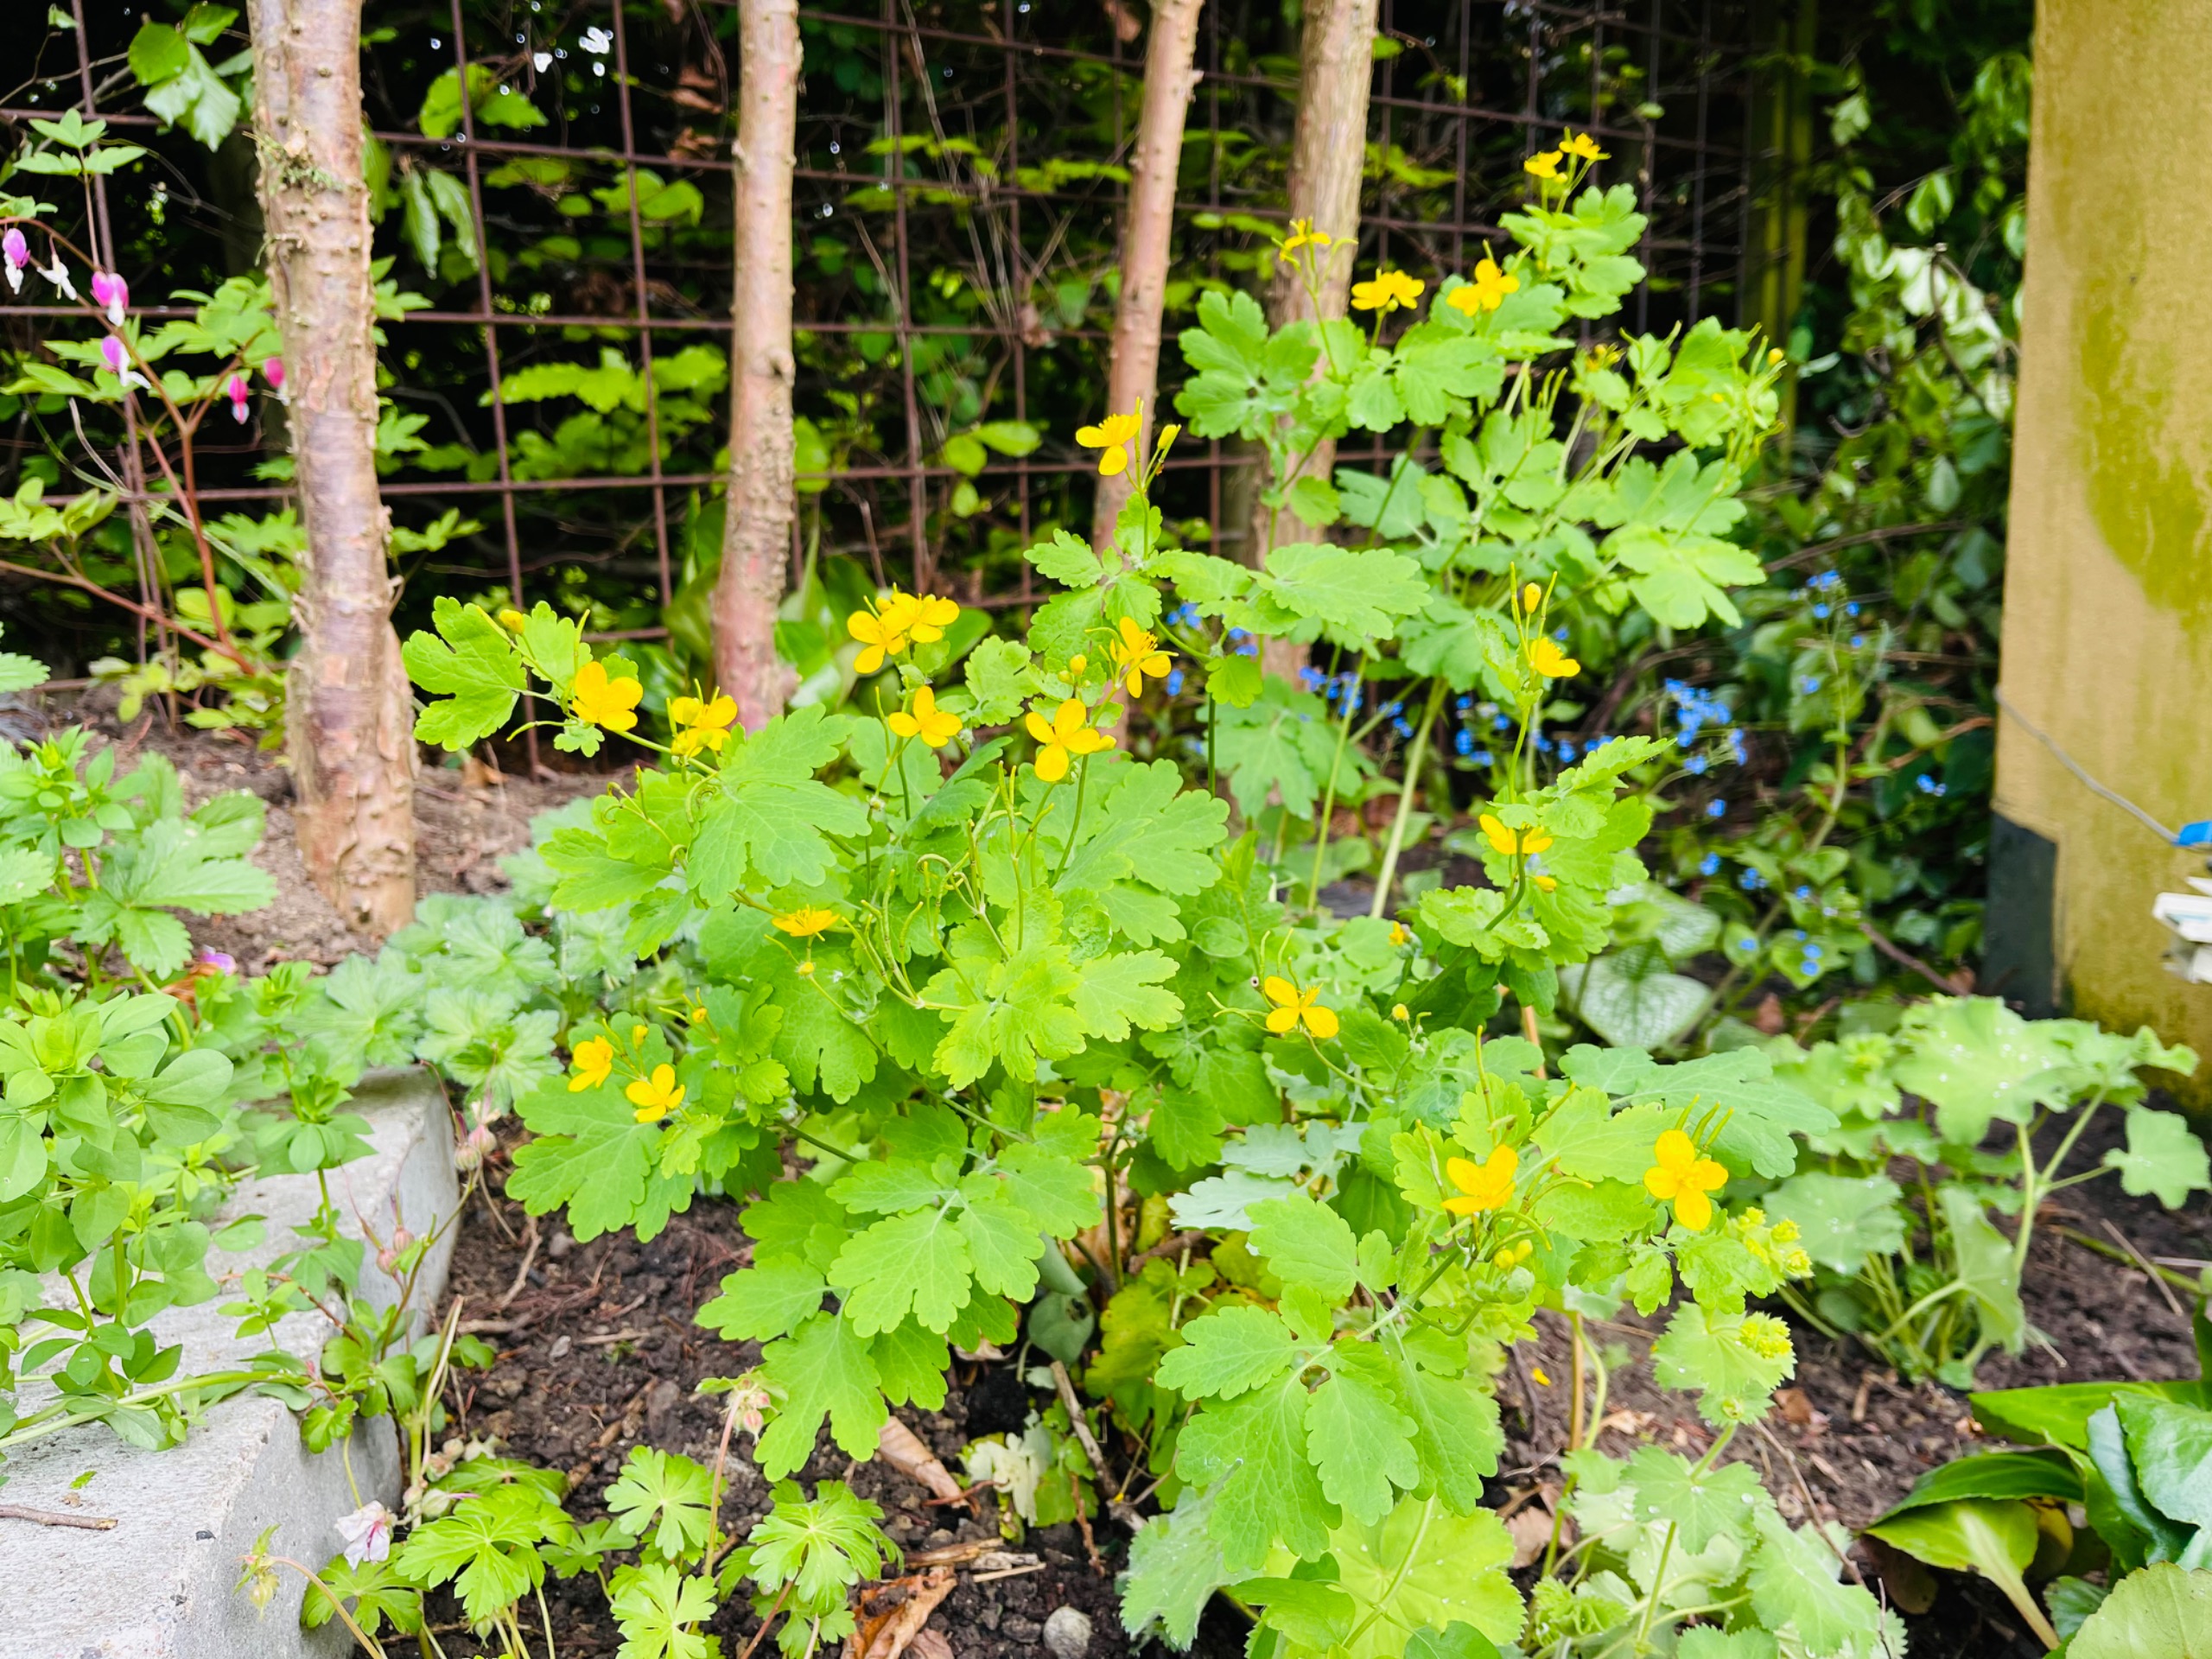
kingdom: Plantae
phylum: Tracheophyta
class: Magnoliopsida
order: Ranunculales
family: Papaveraceae
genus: Chelidonium
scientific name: Chelidonium majus
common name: Svaleurt
